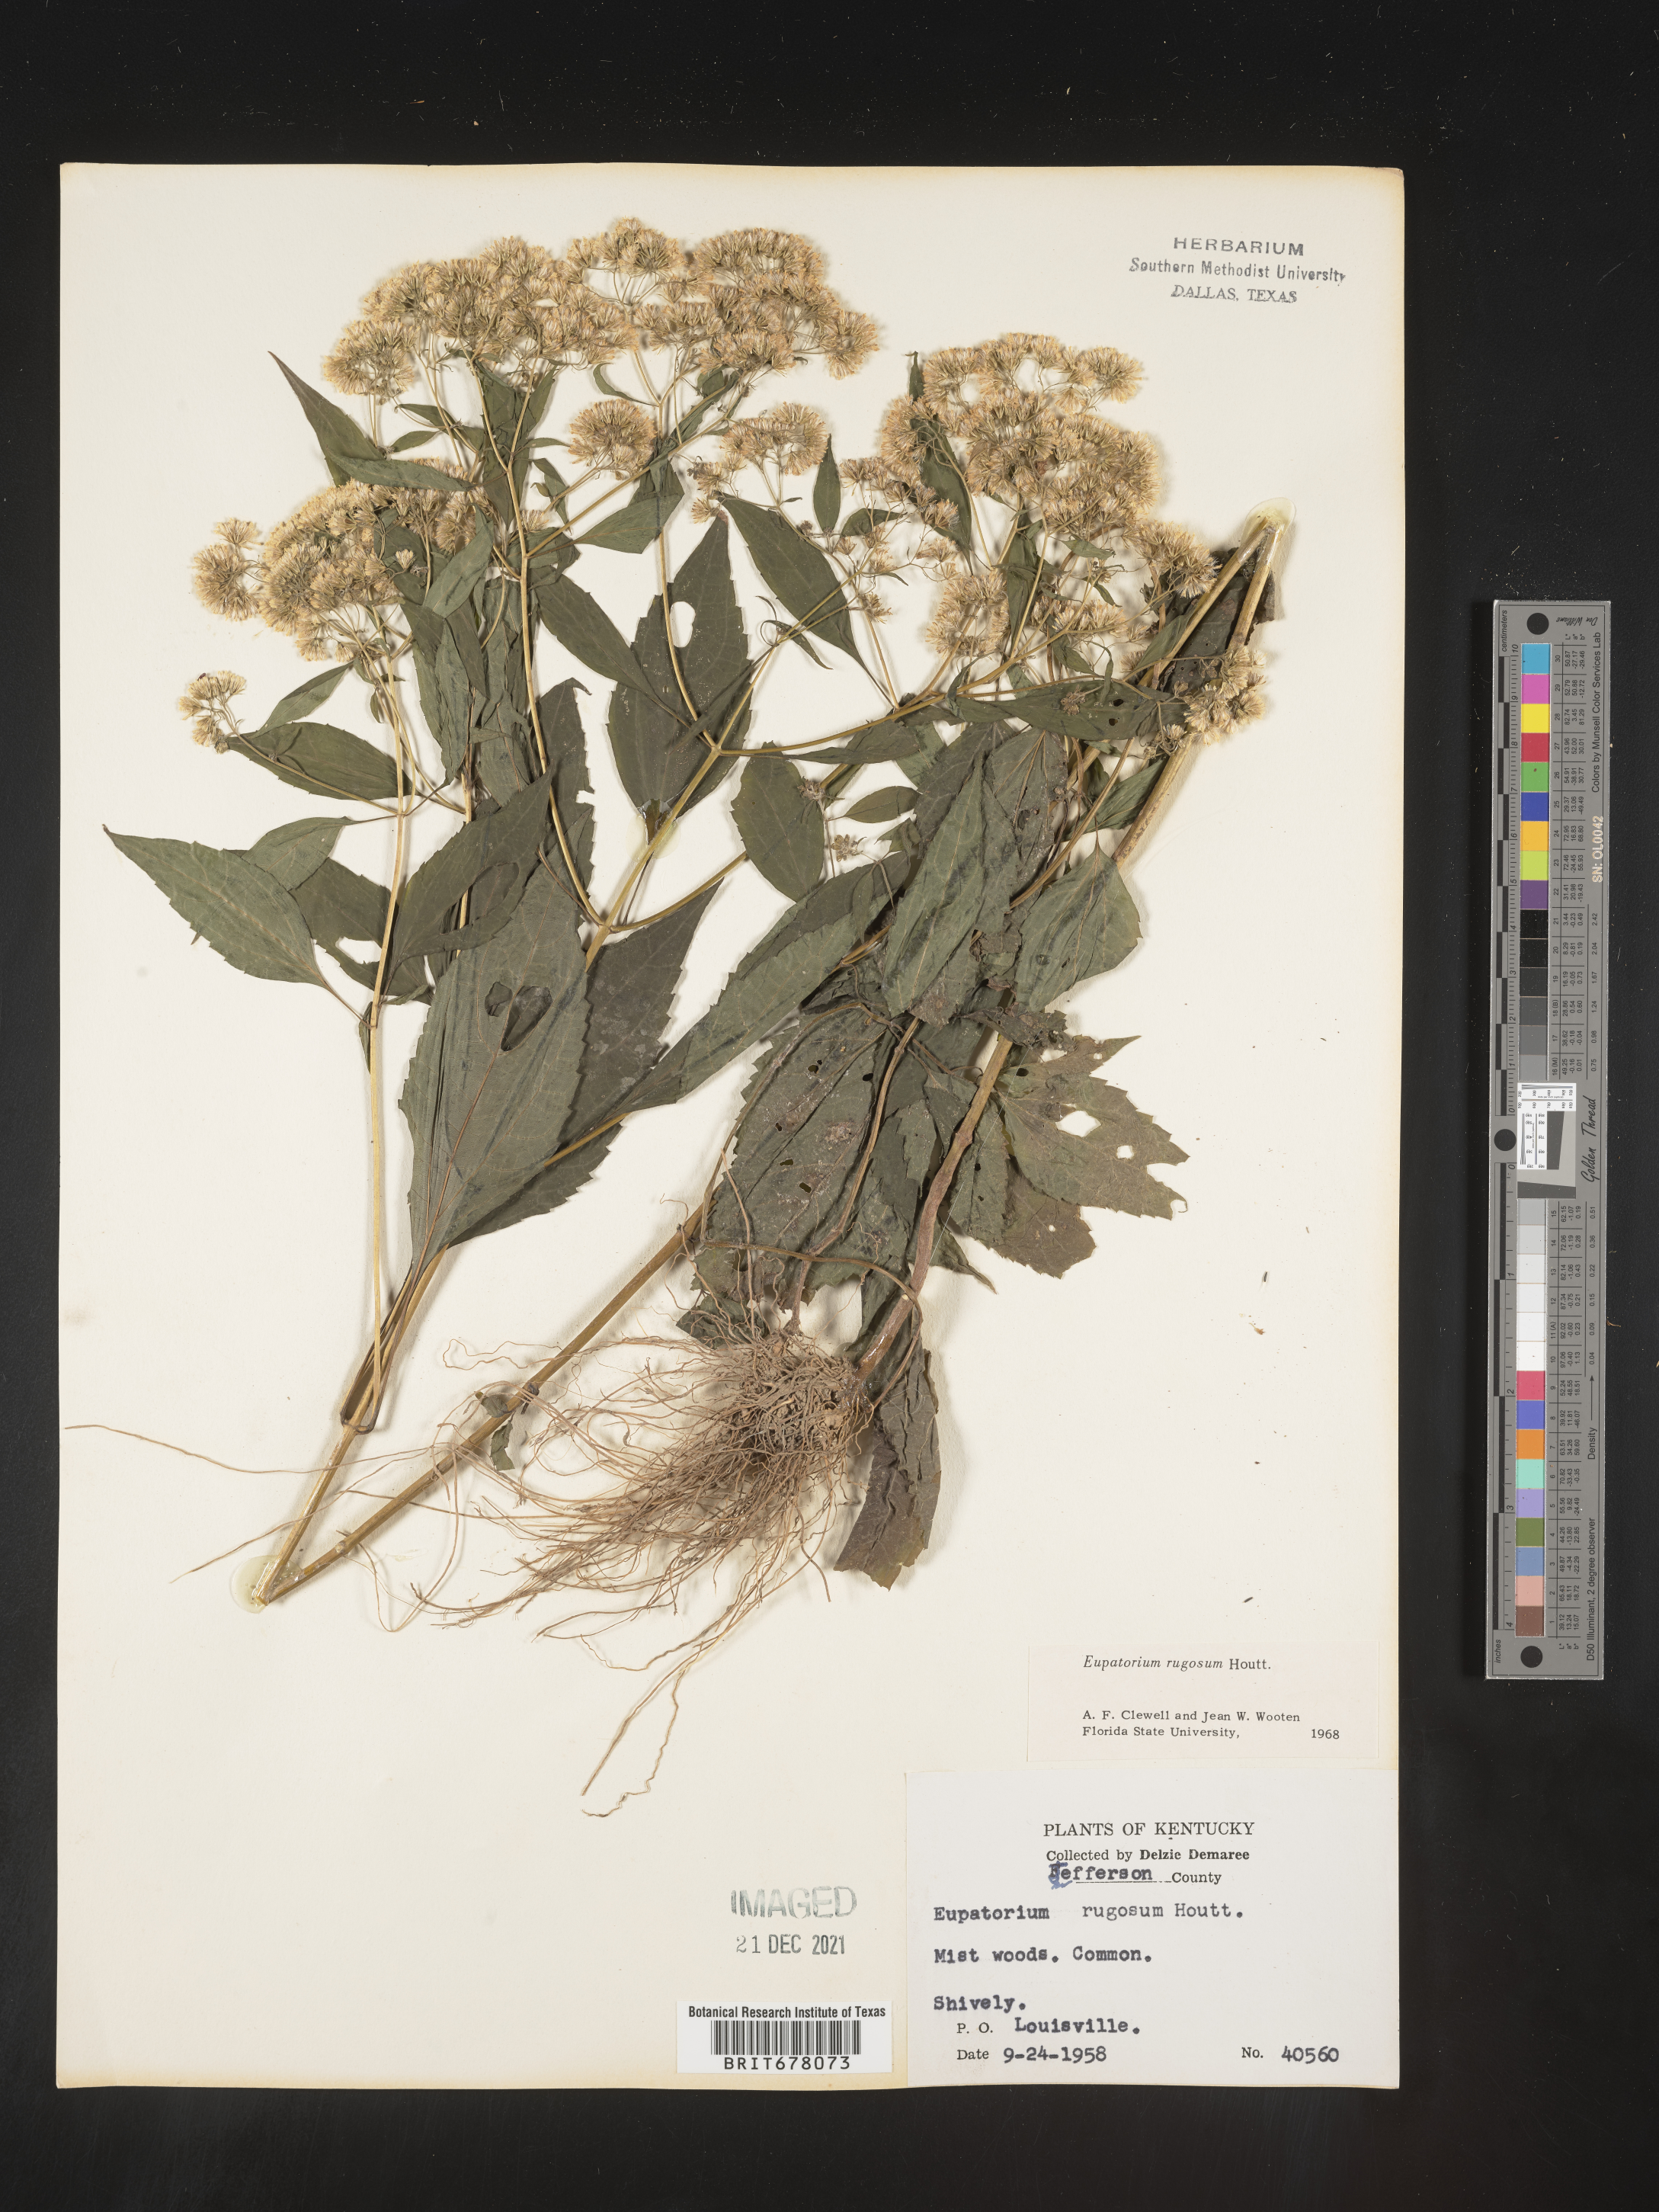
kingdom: Plantae
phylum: Tracheophyta
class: Magnoliopsida
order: Asterales
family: Asteraceae
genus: Eupatorium
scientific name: Eupatorium
